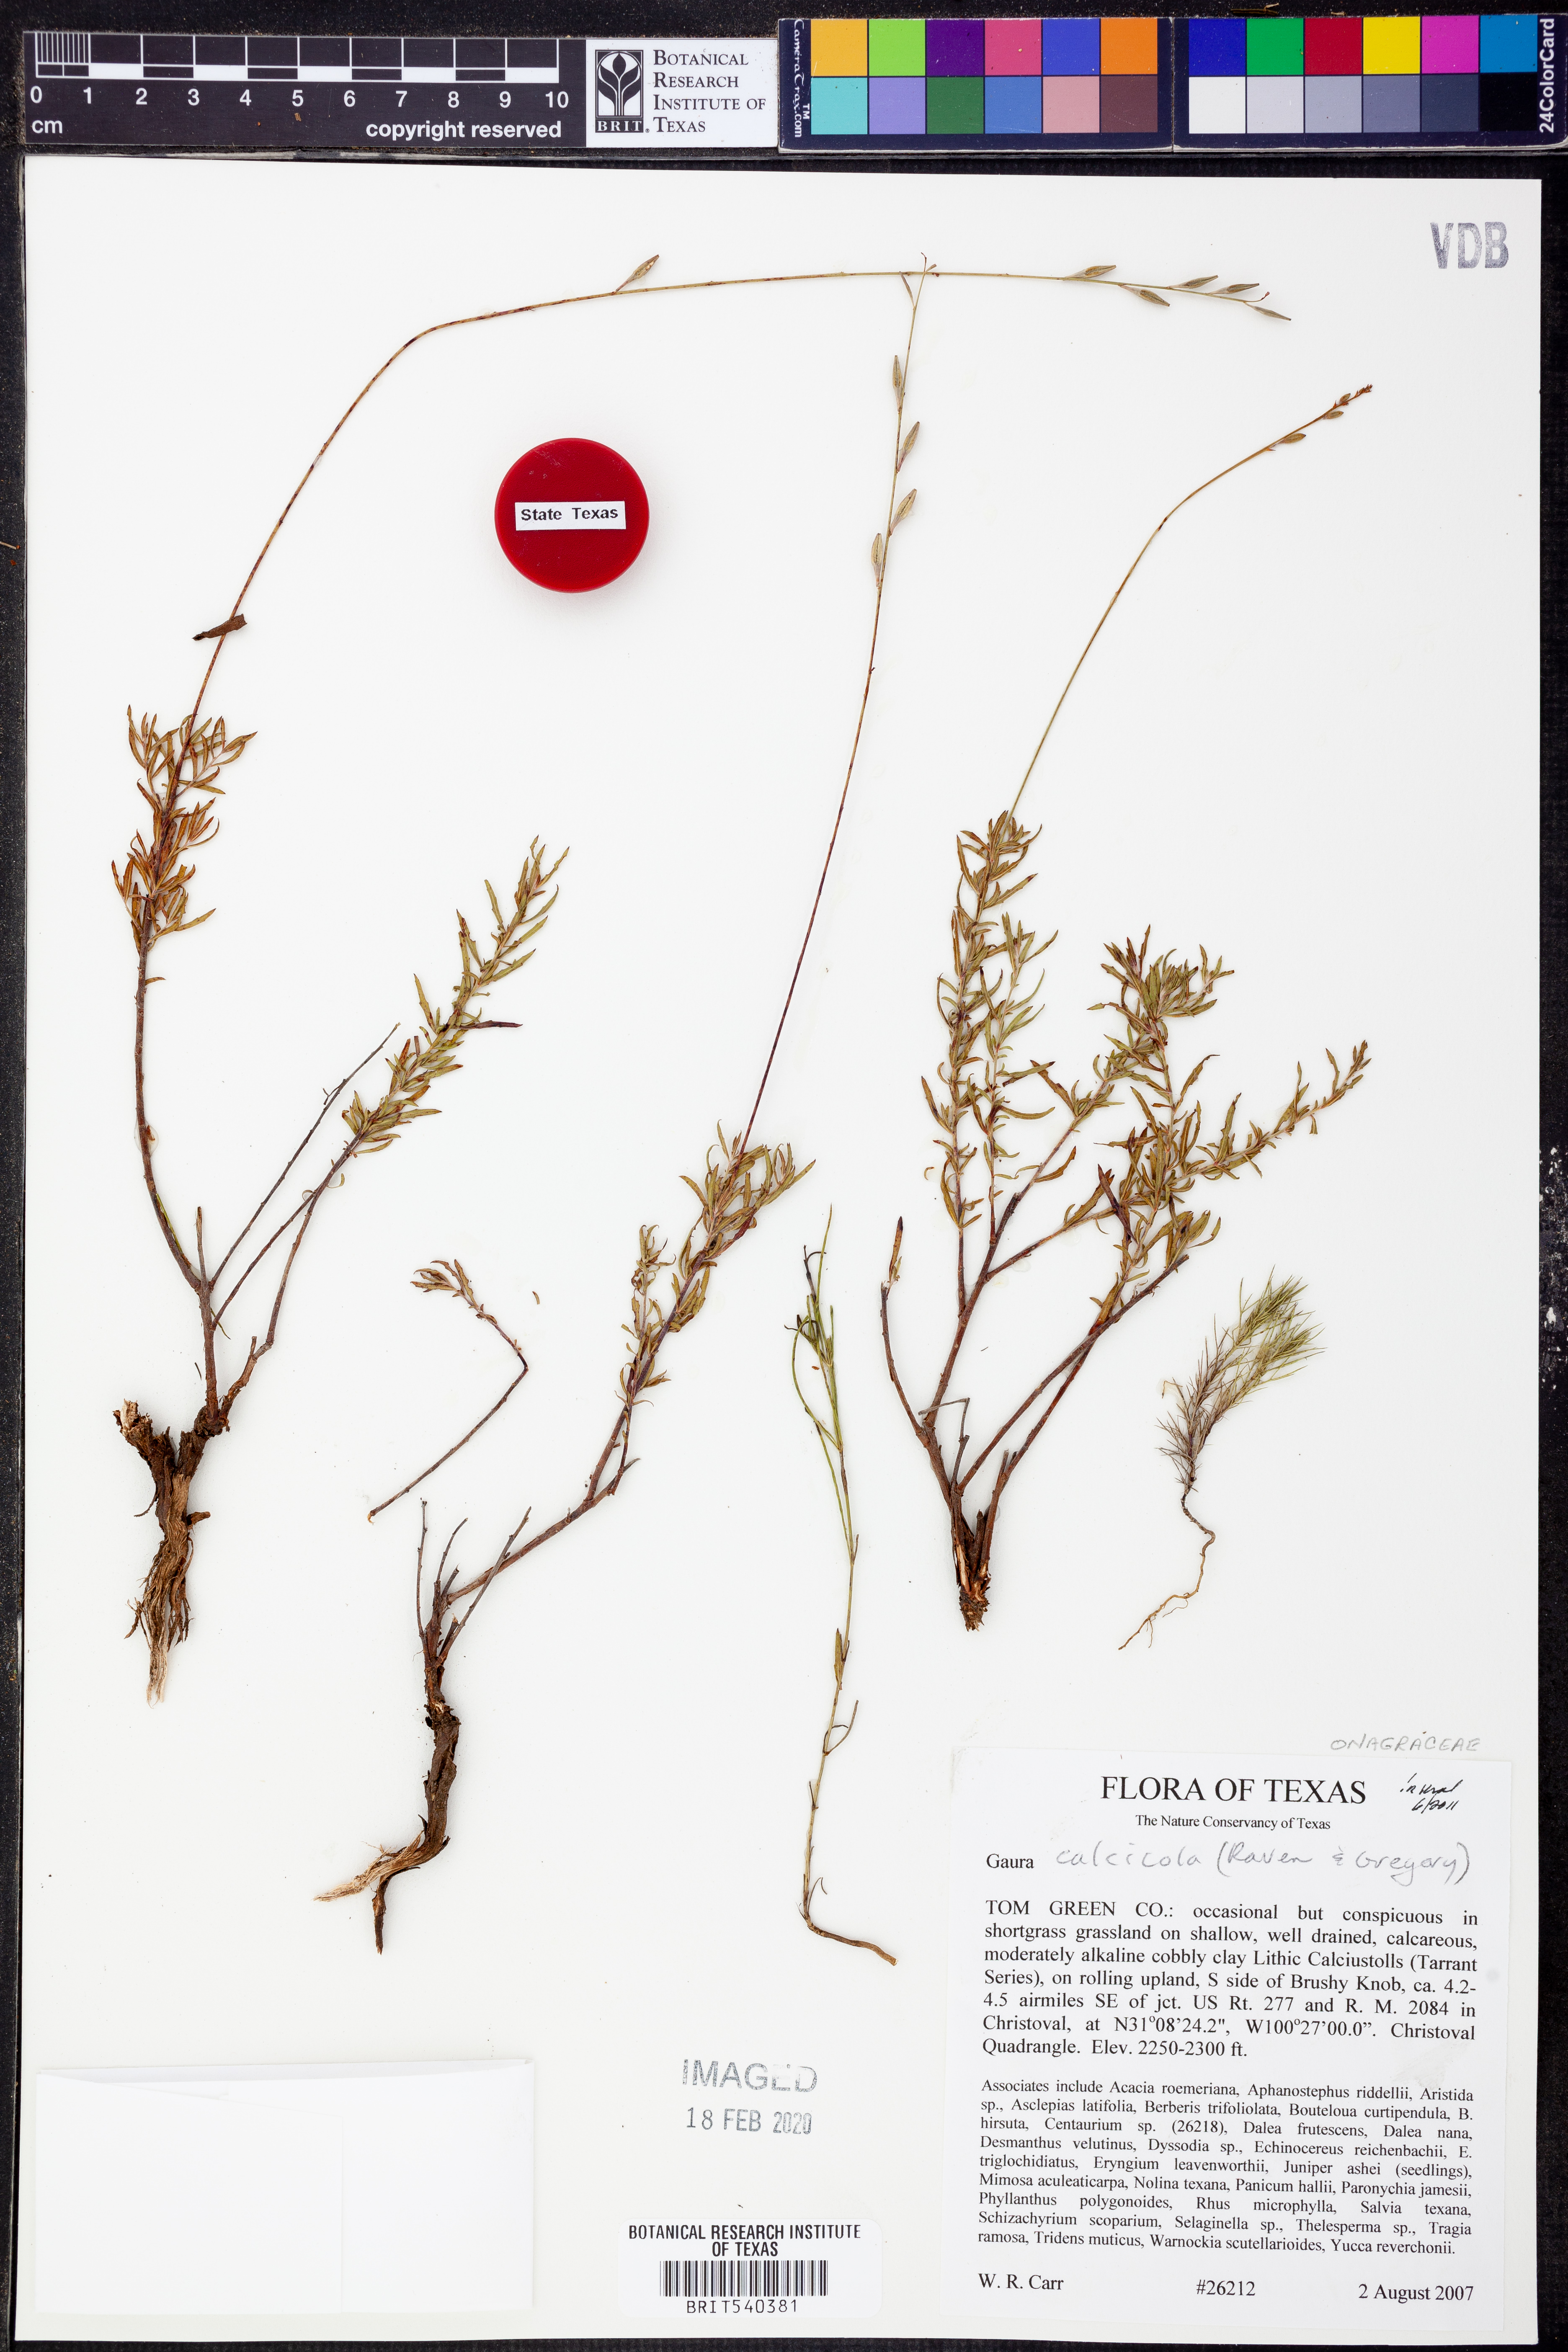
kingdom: Plantae
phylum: Tracheophyta
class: Magnoliopsida
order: Myrtales
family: Onagraceae
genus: Oenothera
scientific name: Oenothera calcicola
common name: Texas beeblossom
